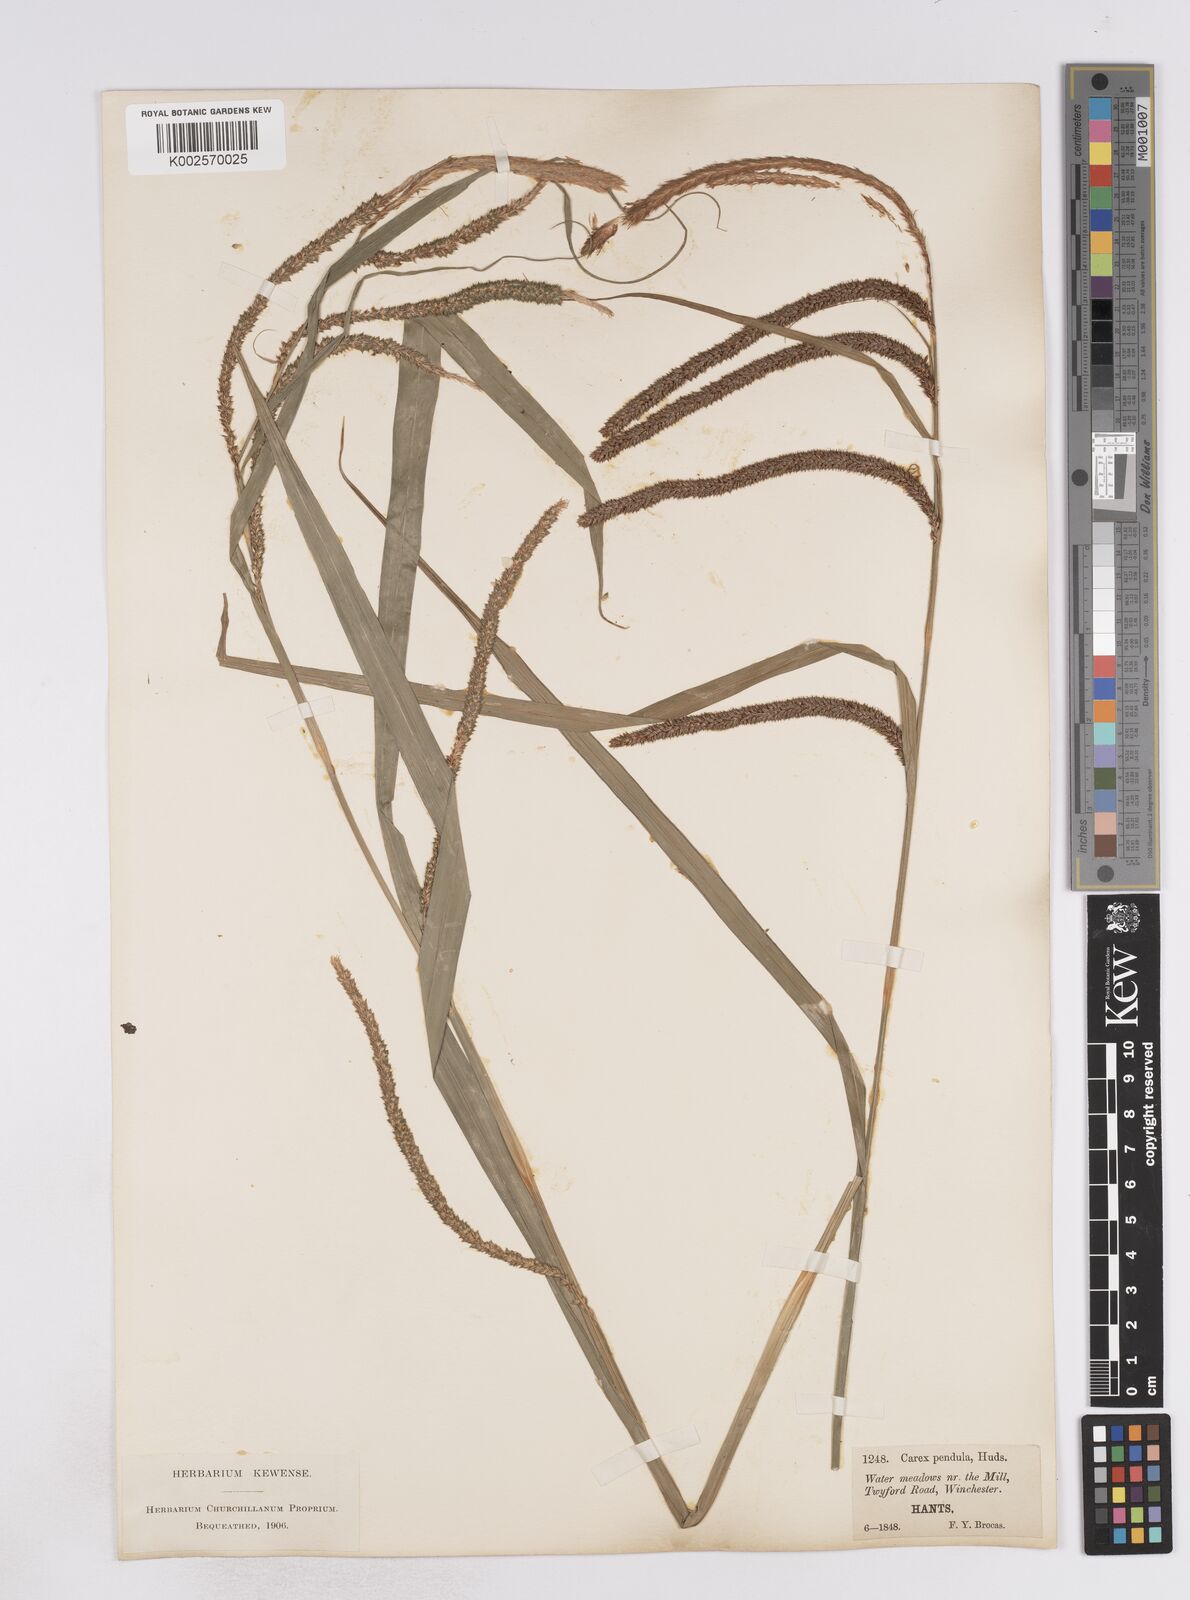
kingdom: Plantae
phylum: Tracheophyta
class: Liliopsida
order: Poales
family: Cyperaceae
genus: Carex
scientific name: Carex pendula
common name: Pendulous sedge
